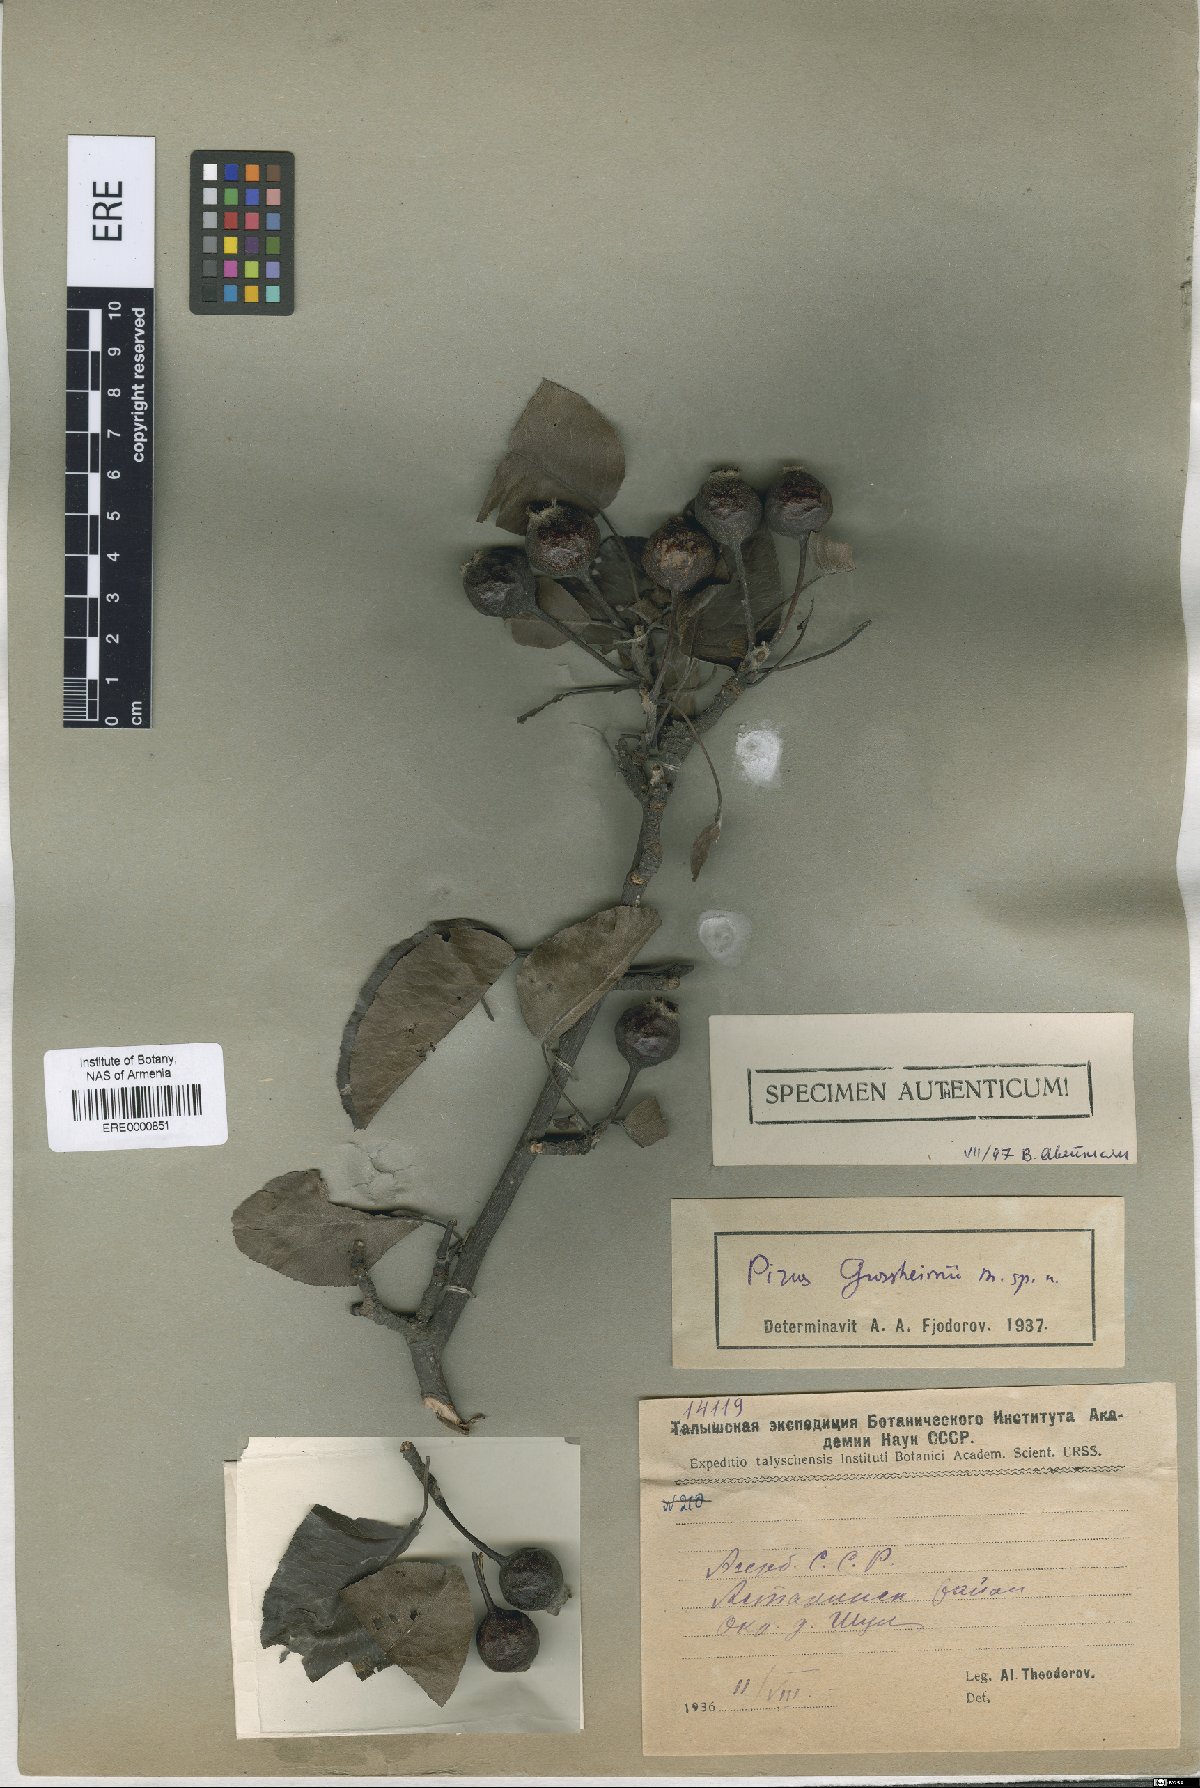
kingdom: Plantae
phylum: Tracheophyta
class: Magnoliopsida
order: Rosales
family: Rosaceae
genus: Pyrus
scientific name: Pyrus grossheimii
